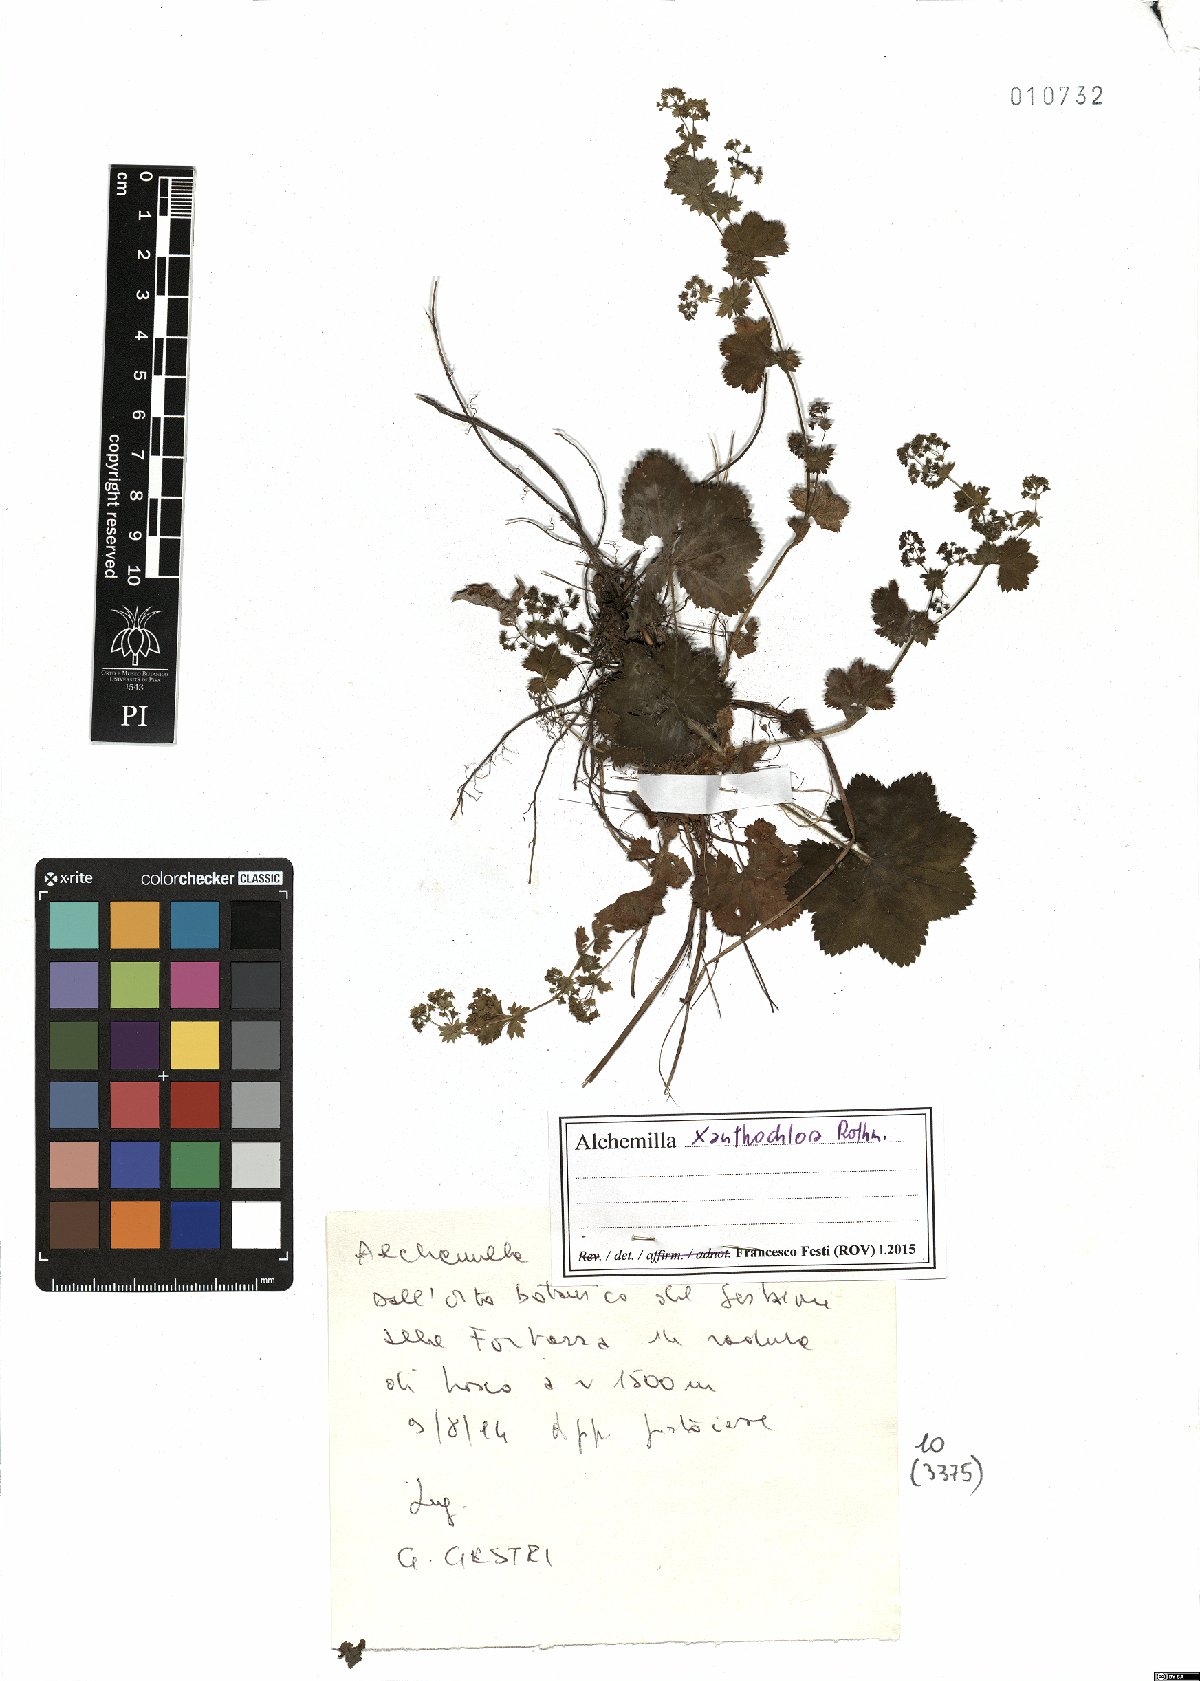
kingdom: Plantae
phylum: Tracheophyta
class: Magnoliopsida
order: Rosales
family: Rosaceae
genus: Alchemilla
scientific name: Alchemilla xanthochlora
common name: Intermediate lady's-mantle
